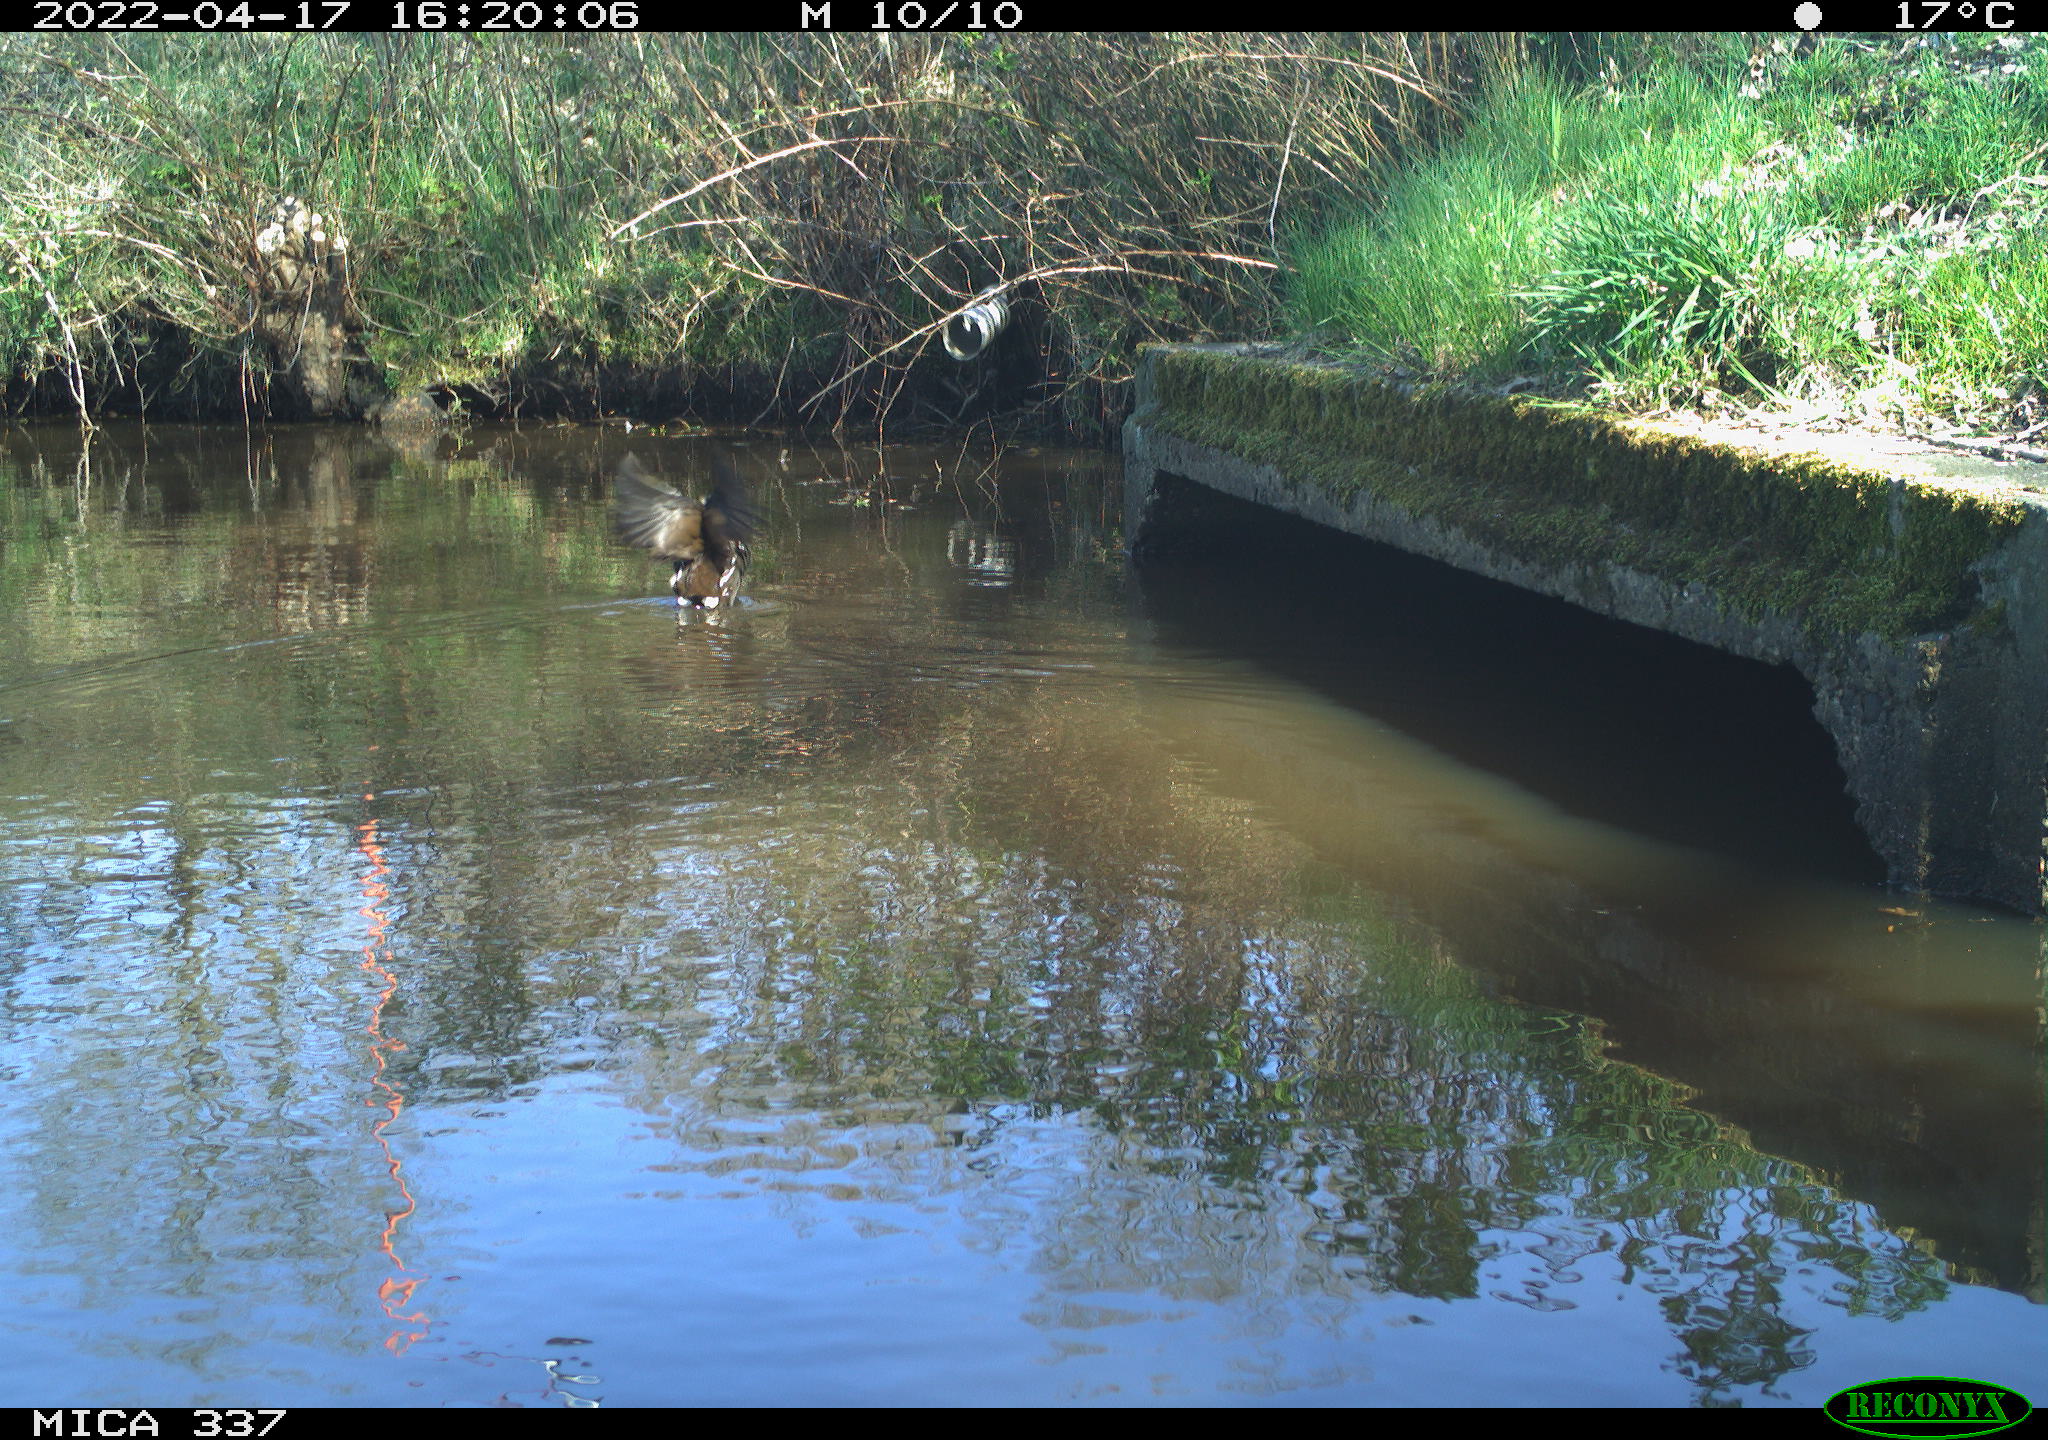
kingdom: Animalia
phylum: Chordata
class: Aves
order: Gruiformes
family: Rallidae
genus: Gallinula
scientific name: Gallinula chloropus
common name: Common moorhen
